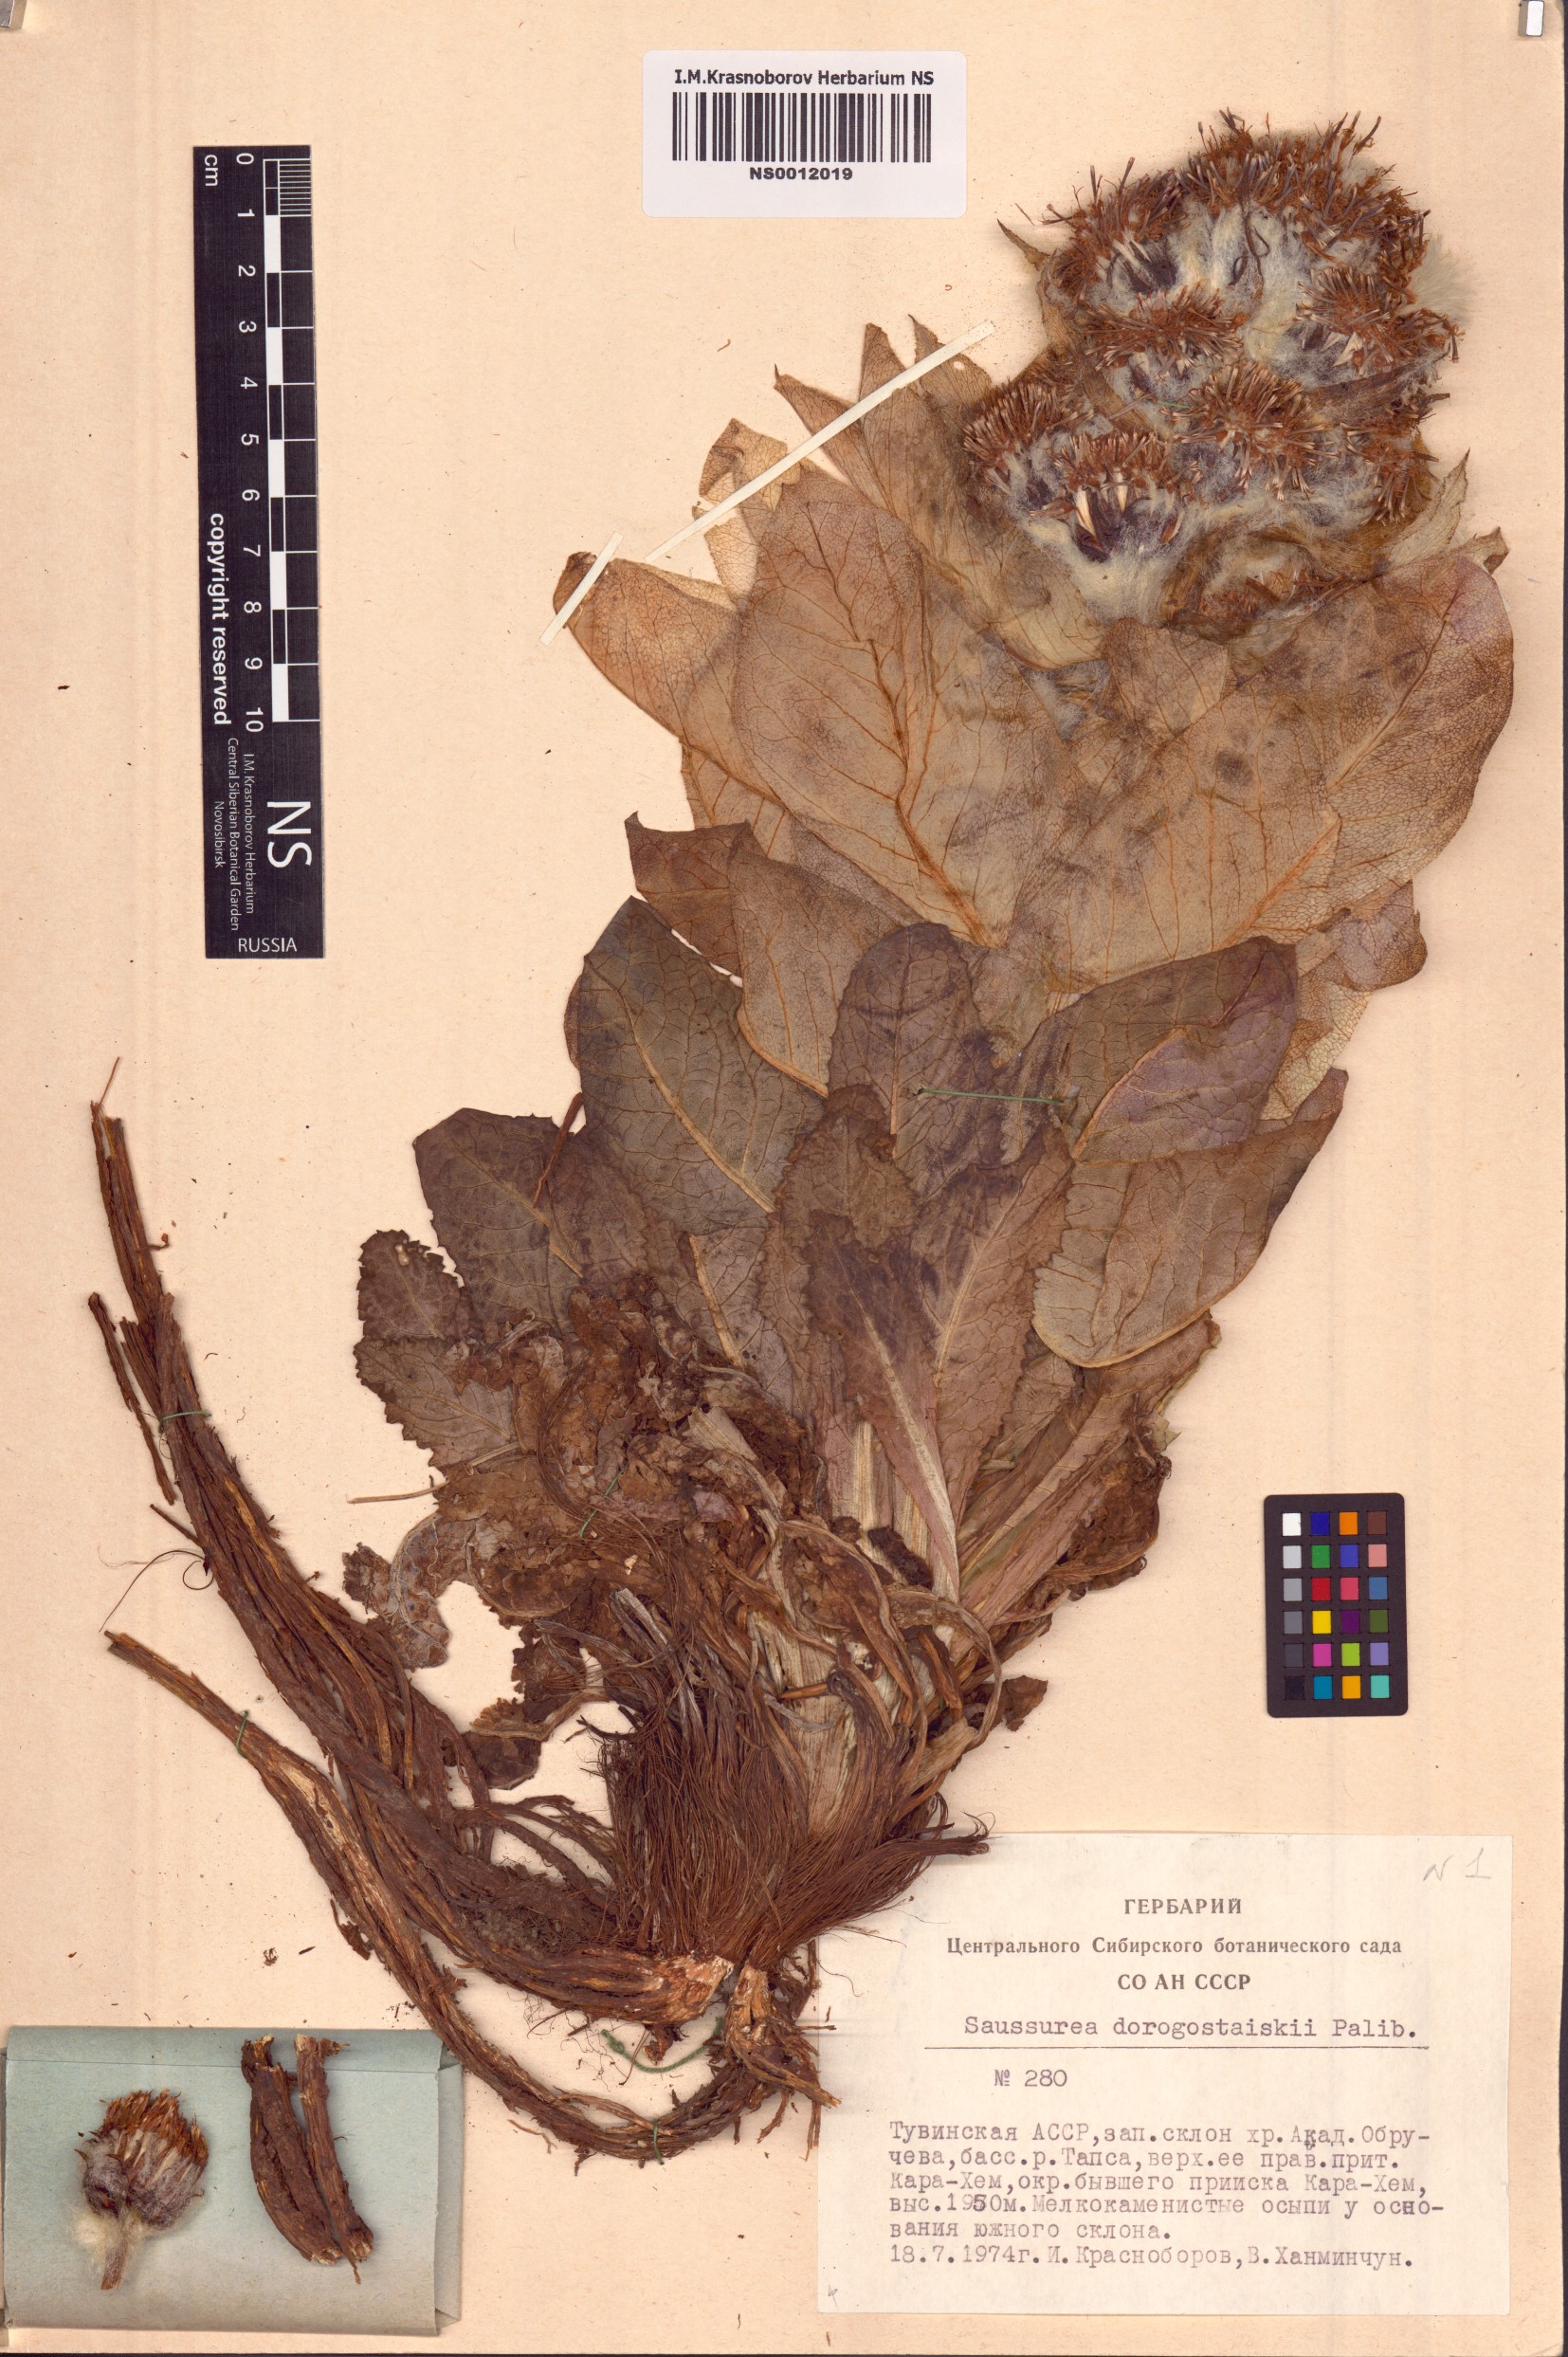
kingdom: Plantae
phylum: Tracheophyta
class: Magnoliopsida
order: Asterales
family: Asteraceae
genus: Saussurea
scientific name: Saussurea involucrata
